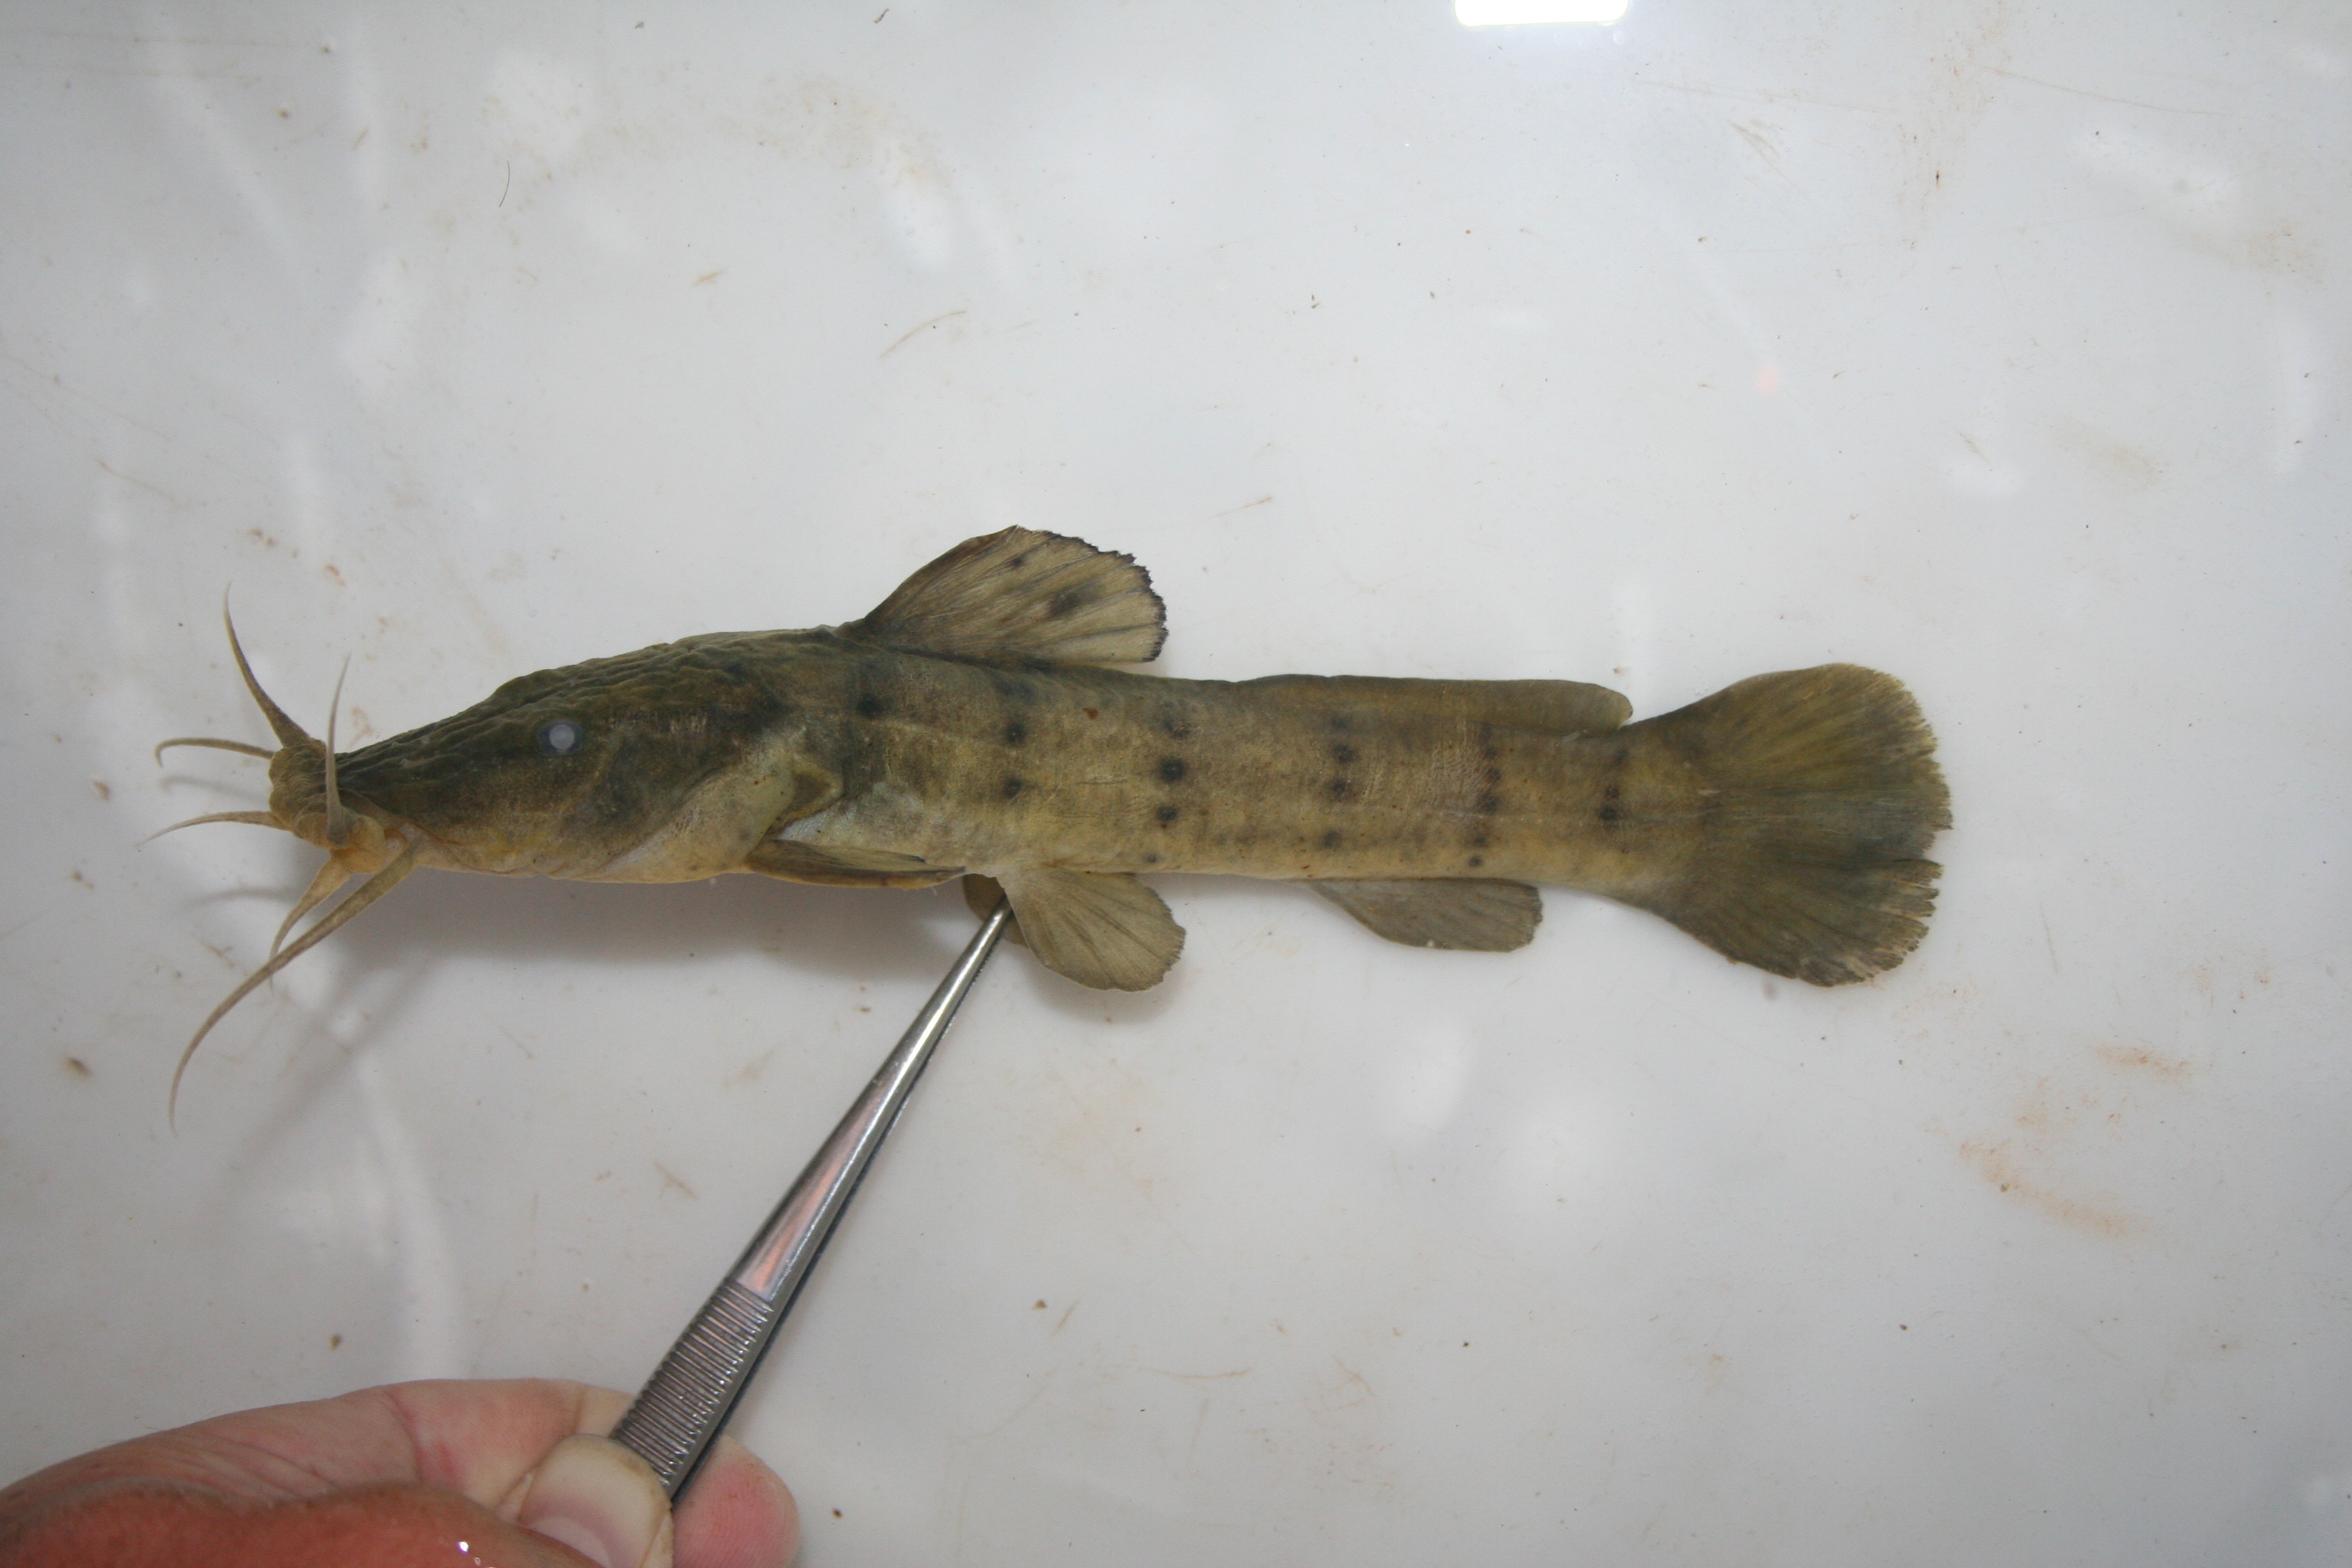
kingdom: Animalia
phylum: Chordata
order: Siluriformes
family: Claroteidae
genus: Parauchenoglanis
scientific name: Parauchenoglanis
